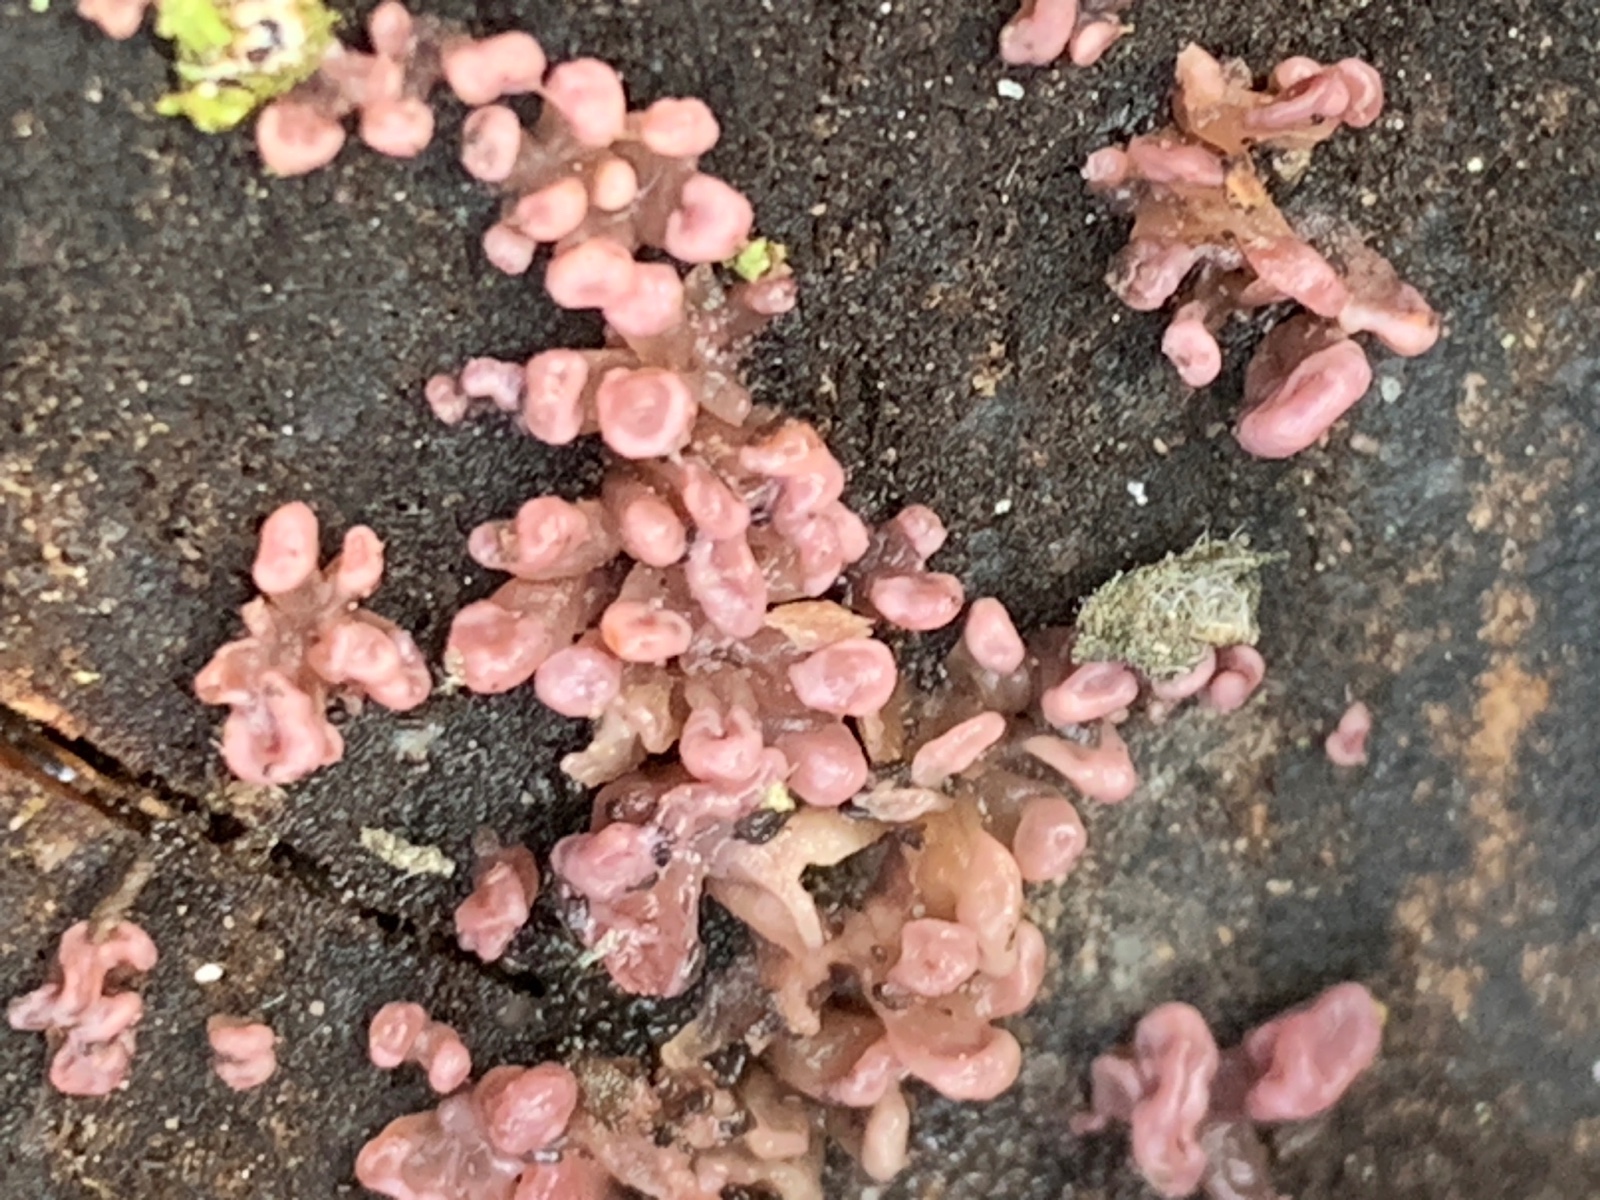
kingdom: Fungi
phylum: Ascomycota
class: Leotiomycetes
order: Helotiales
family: Gelatinodiscaceae
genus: Ascocoryne
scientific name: Ascocoryne sarcoides
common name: rødlilla sejskive
